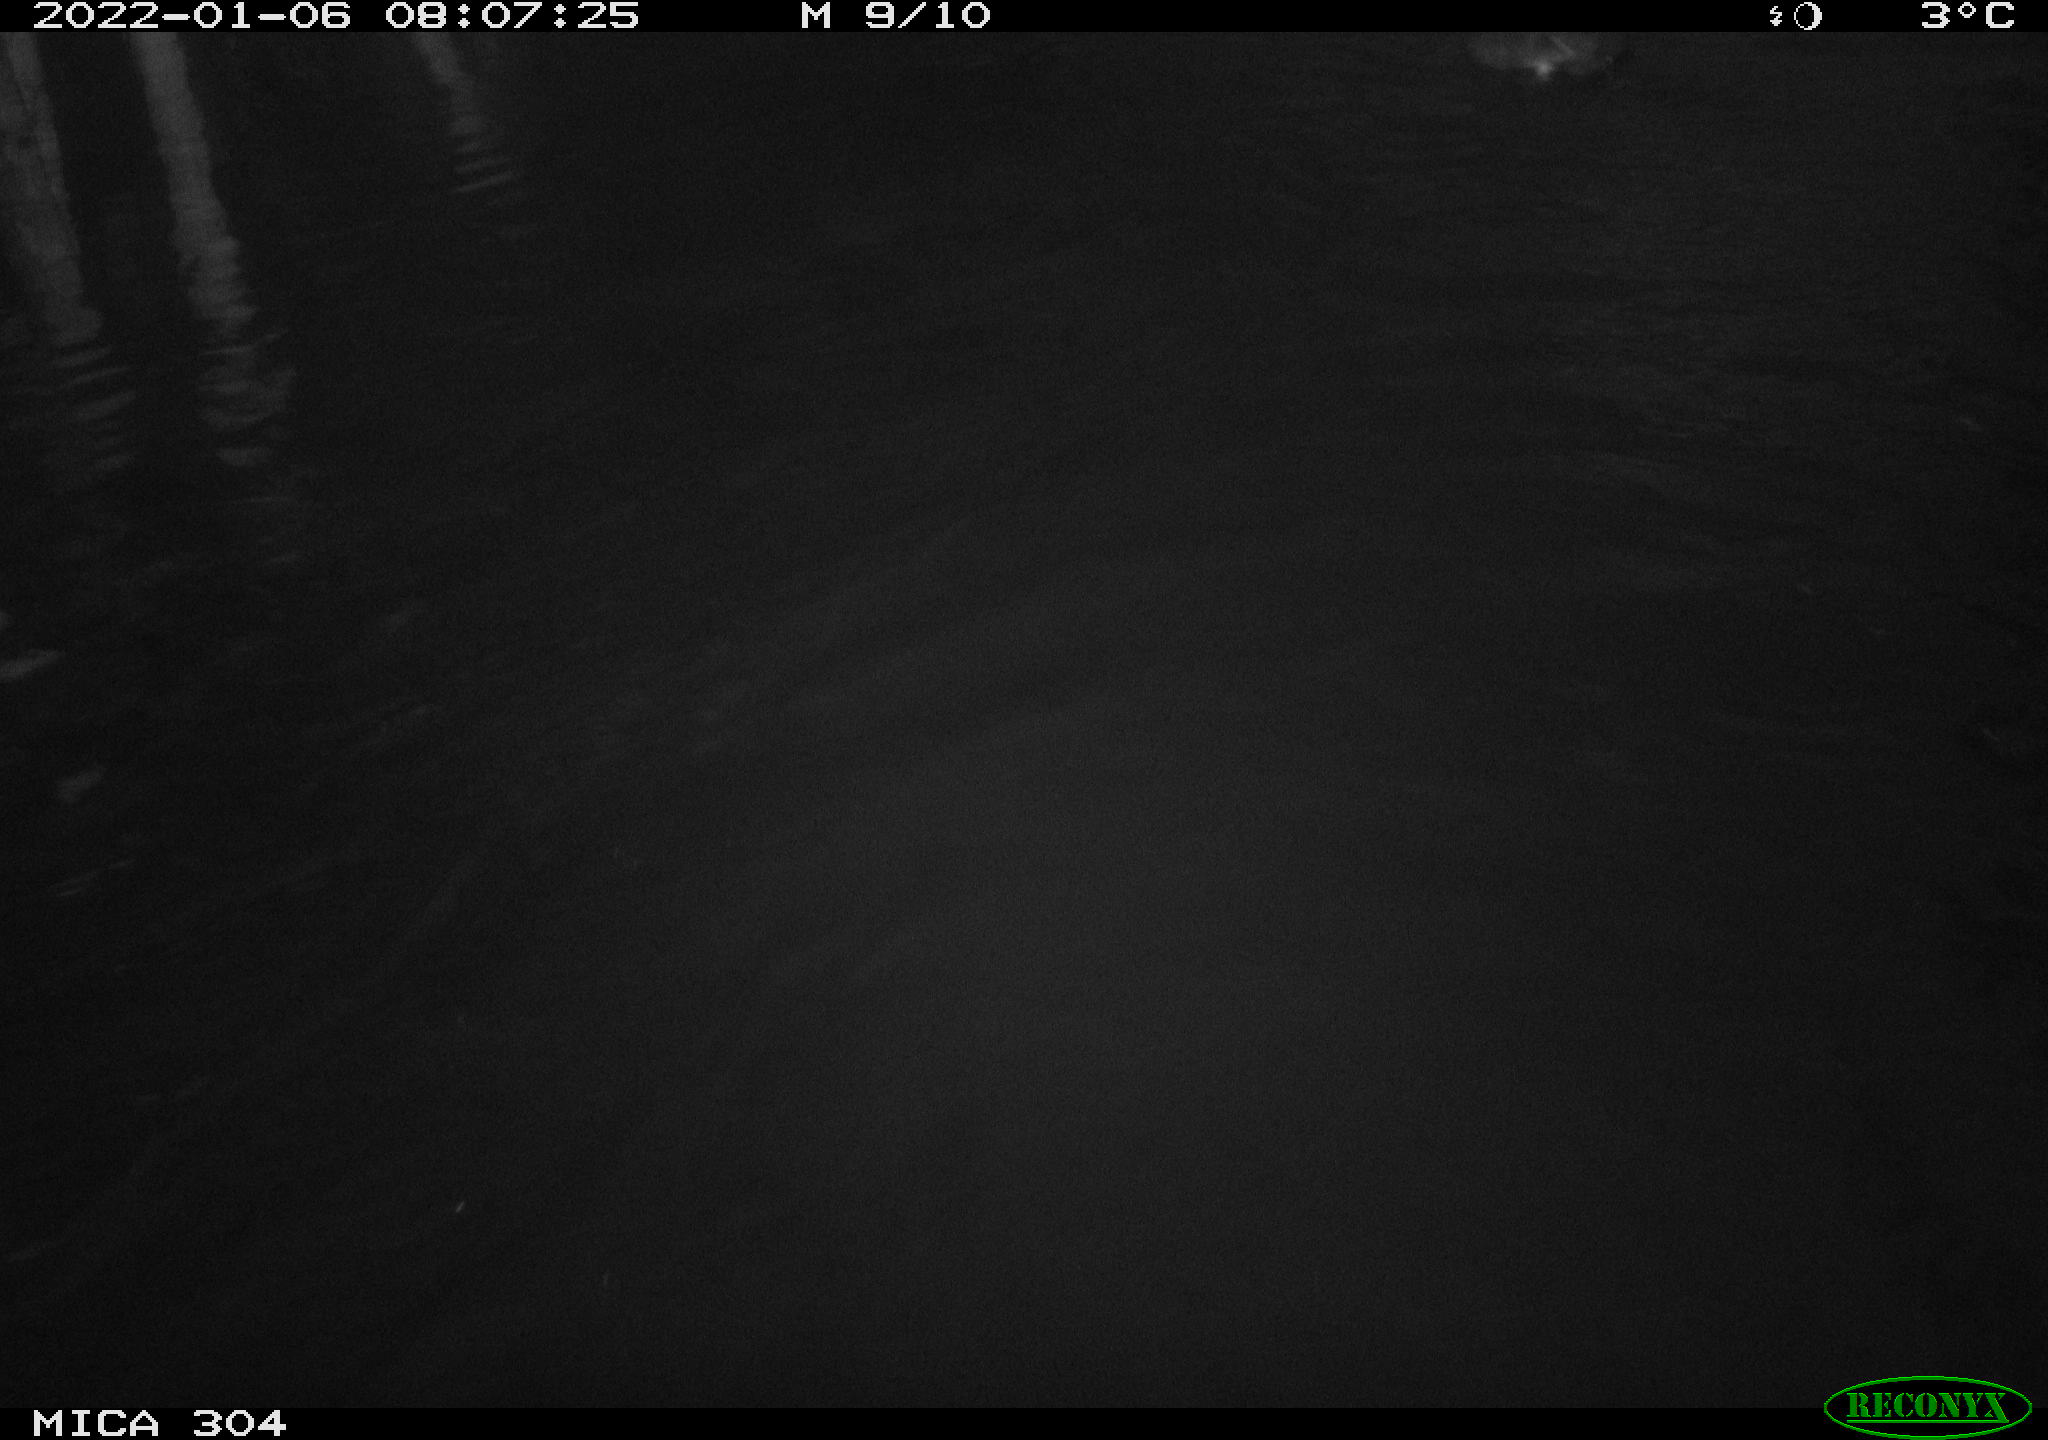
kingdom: Animalia
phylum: Chordata
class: Aves
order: Gruiformes
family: Rallidae
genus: Fulica
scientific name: Fulica atra
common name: Eurasian coot
